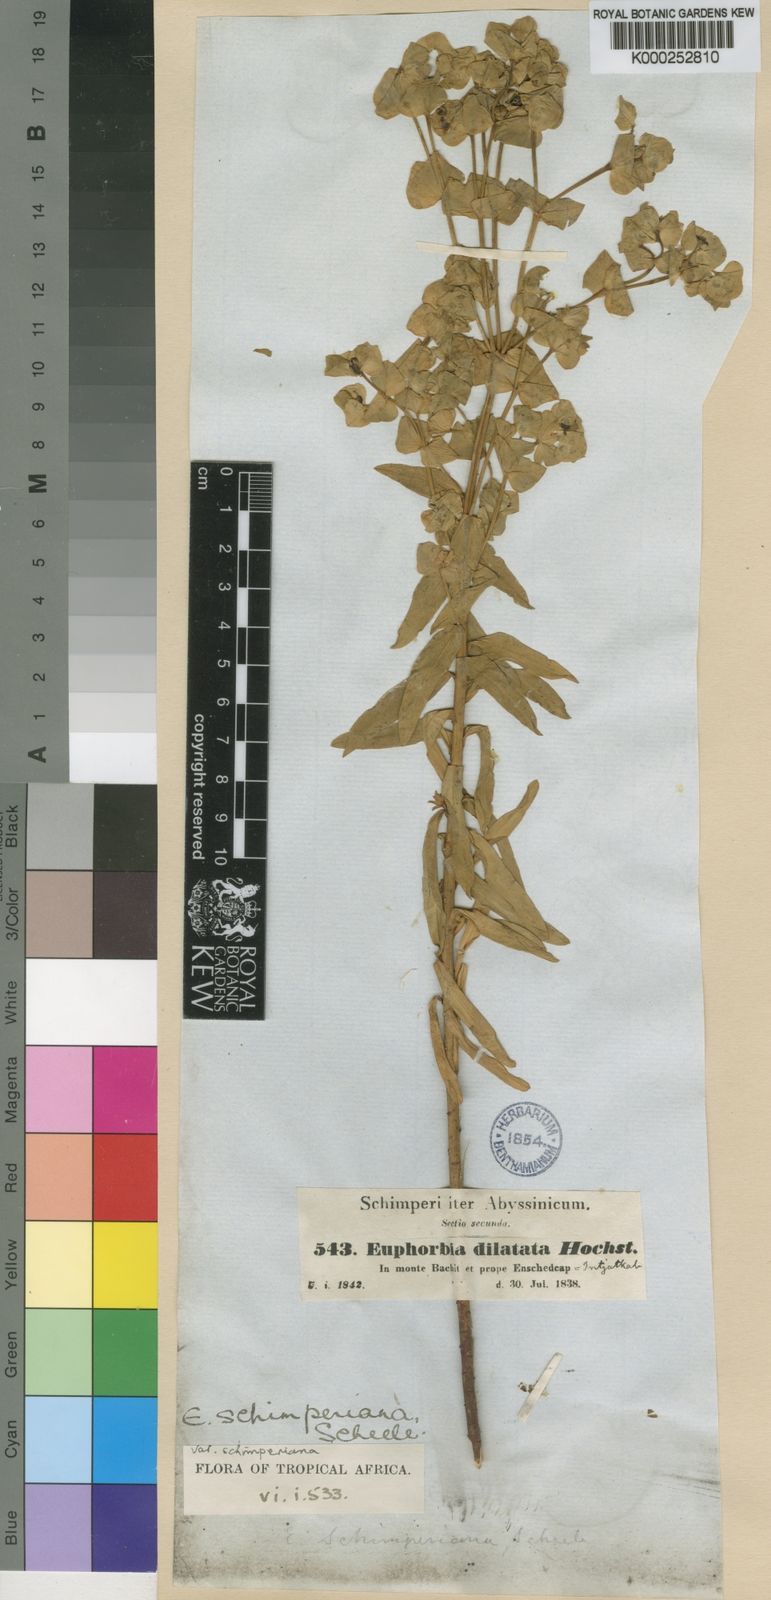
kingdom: Plantae
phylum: Tracheophyta
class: Magnoliopsida
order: Malpighiales
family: Euphorbiaceae
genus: Euphorbia
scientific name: Euphorbia schimperiana
